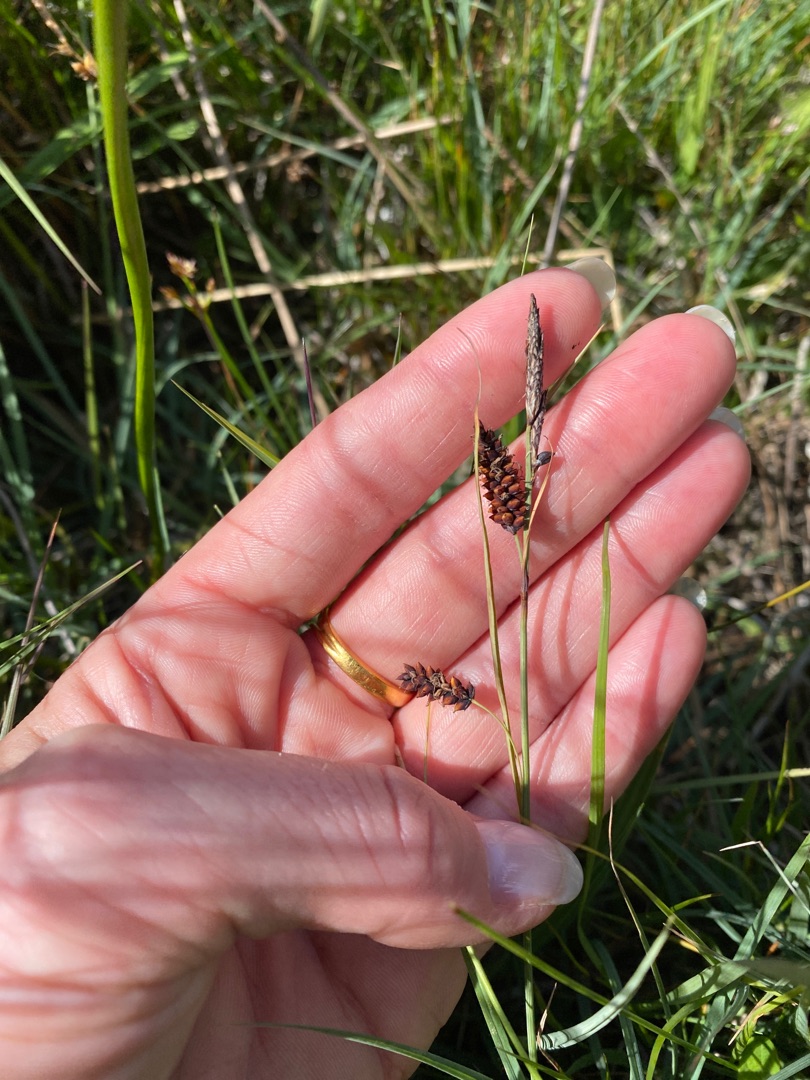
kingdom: Plantae
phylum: Tracheophyta
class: Liliopsida
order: Poales
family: Cyperaceae
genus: Carex
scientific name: Carex flacca
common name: Blågrøn star
